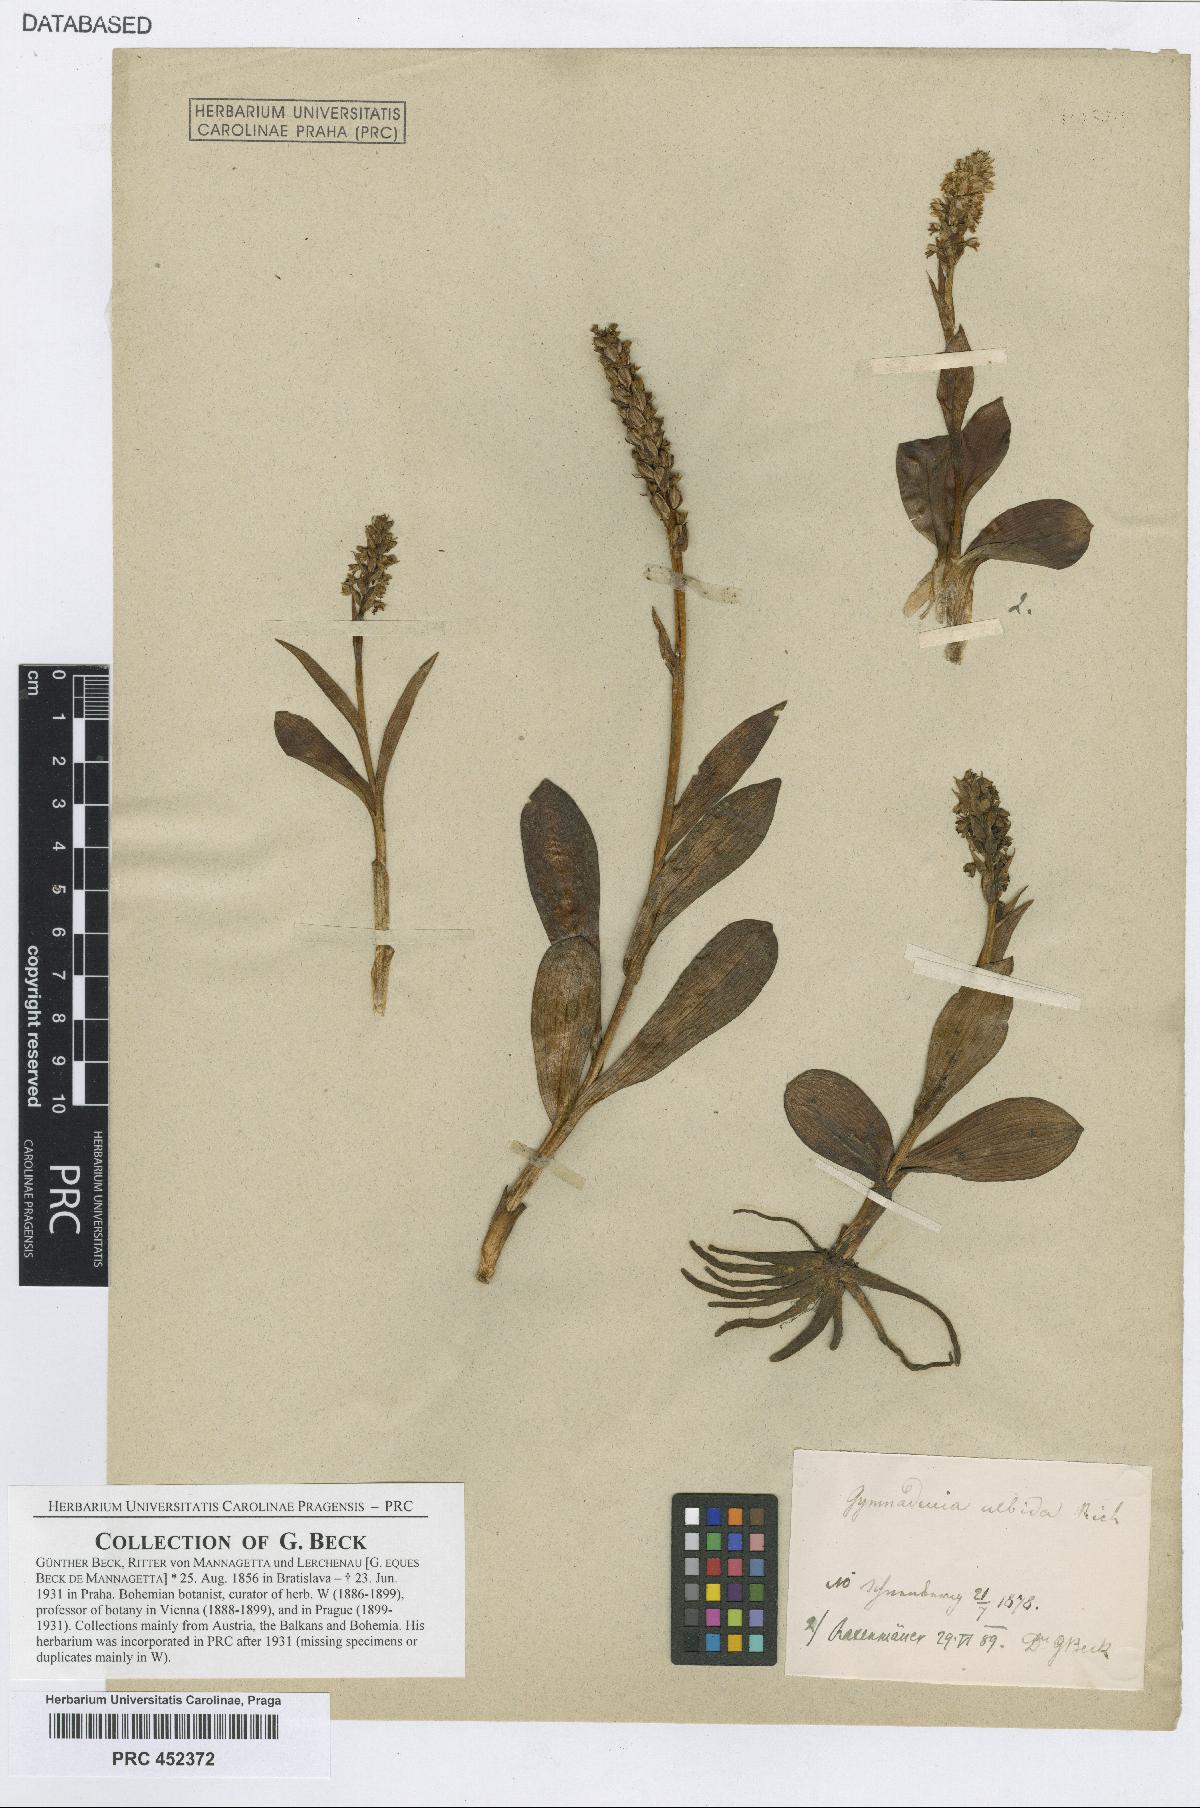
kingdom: Plantae
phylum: Tracheophyta
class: Liliopsida
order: Asparagales
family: Orchidaceae
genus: Pseudorchis
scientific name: Pseudorchis albida
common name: Small-white orchid
